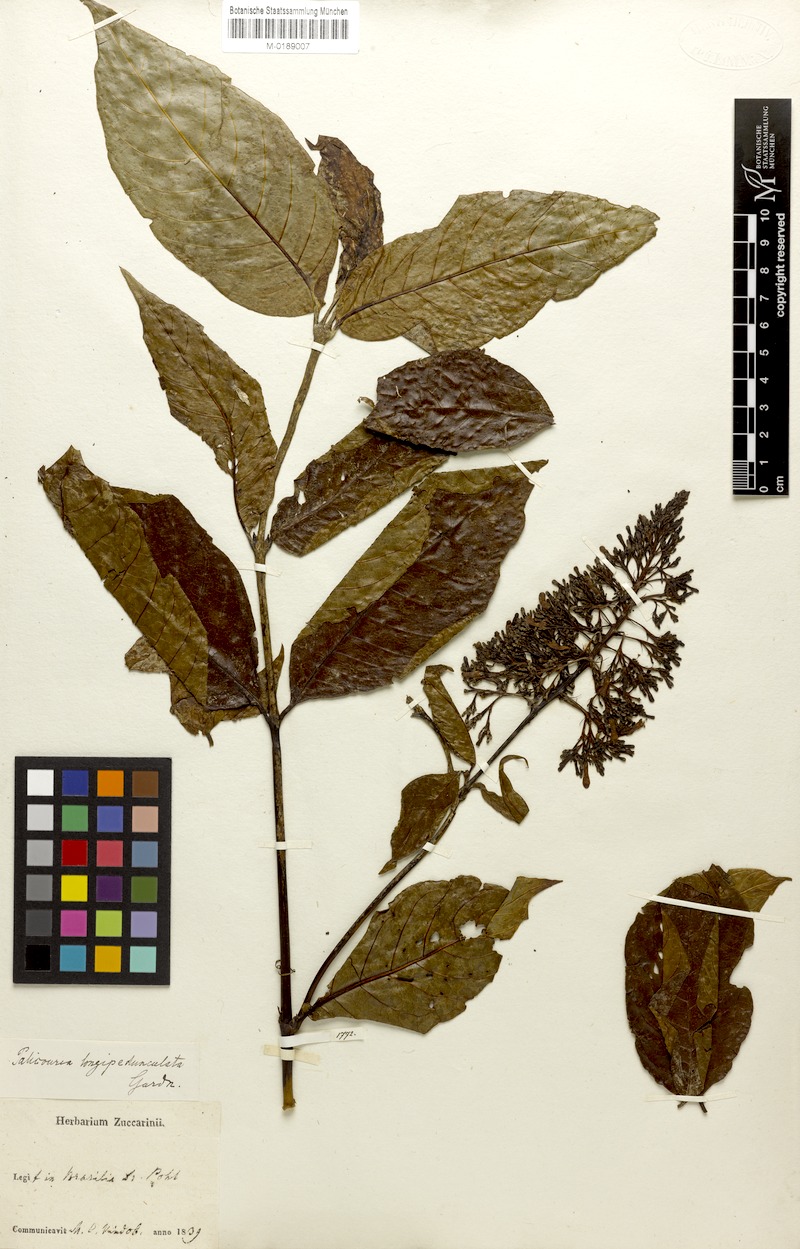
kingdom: Plantae
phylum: Tracheophyta
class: Magnoliopsida
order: Gentianales
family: Rubiaceae
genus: Palicourea
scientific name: Palicourea longipedunculata
